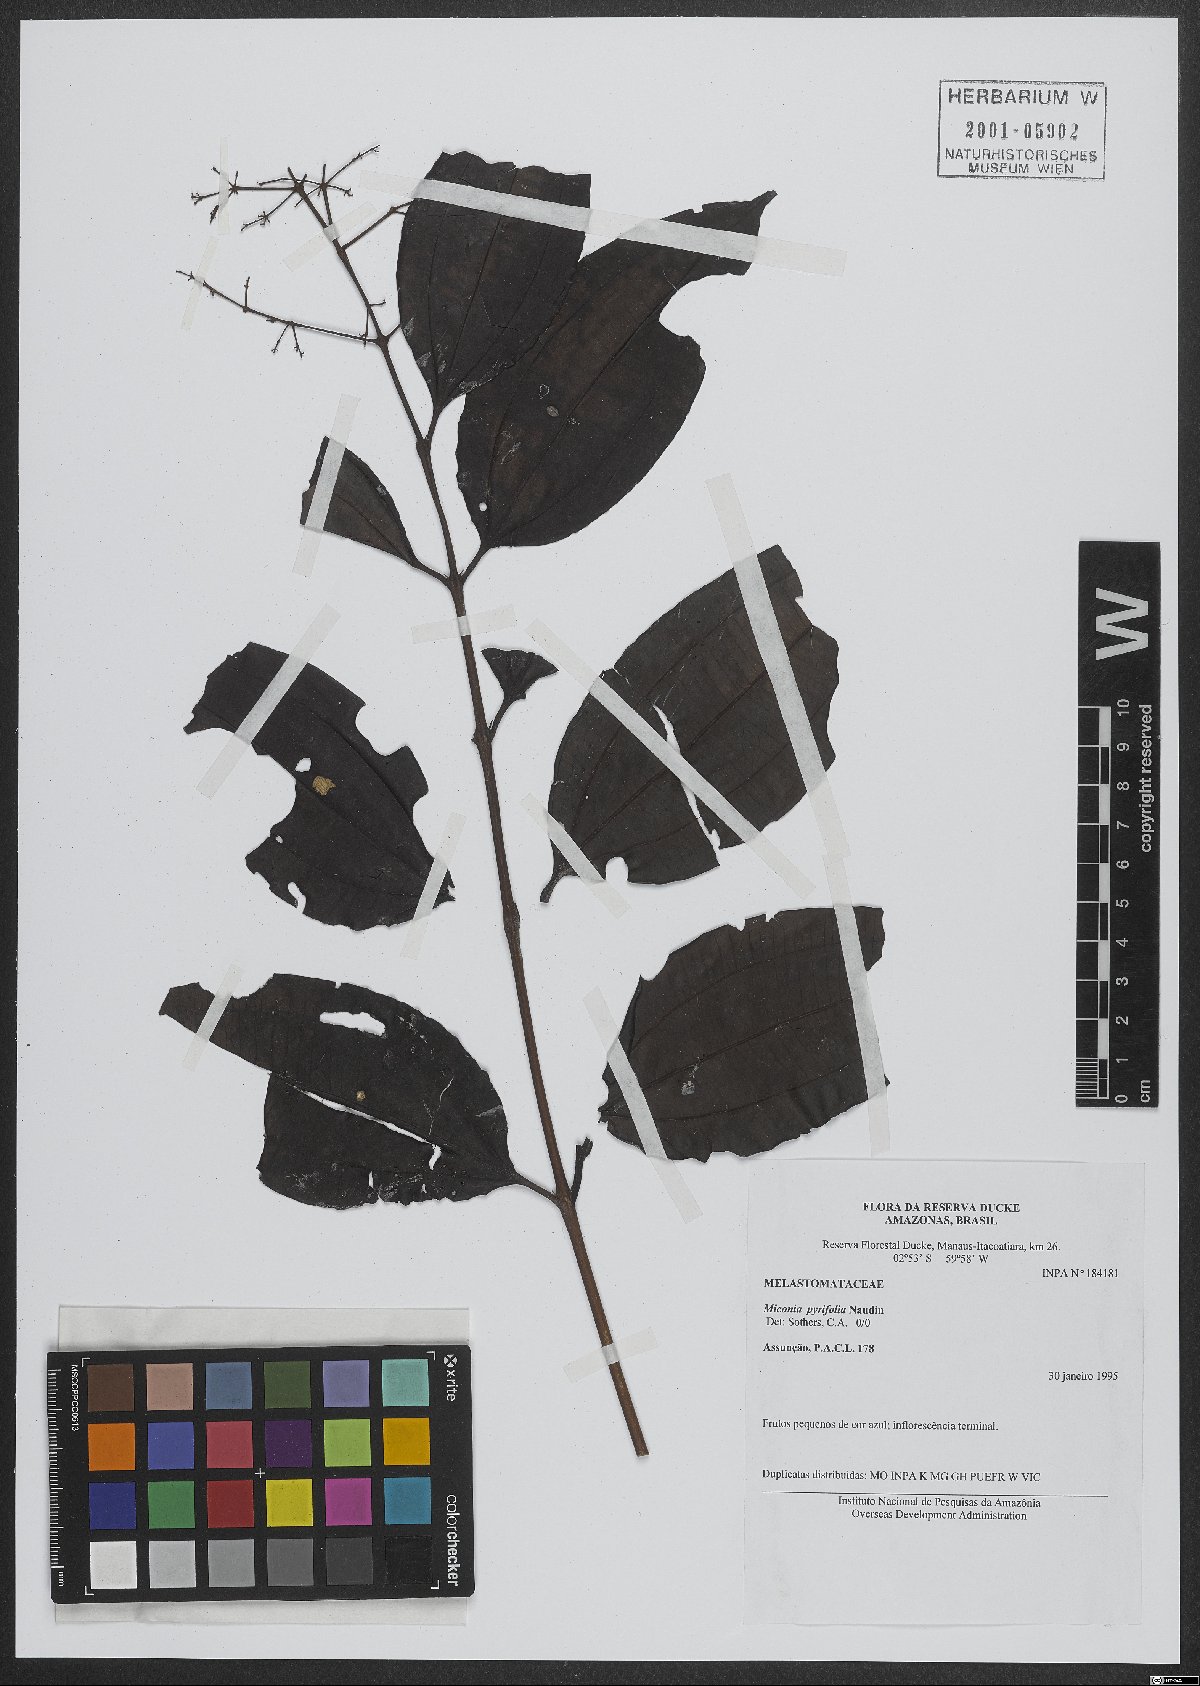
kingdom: Plantae
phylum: Tracheophyta
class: Magnoliopsida
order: Myrtales
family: Melastomataceae
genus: Miconia
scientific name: Miconia pyrifolia
